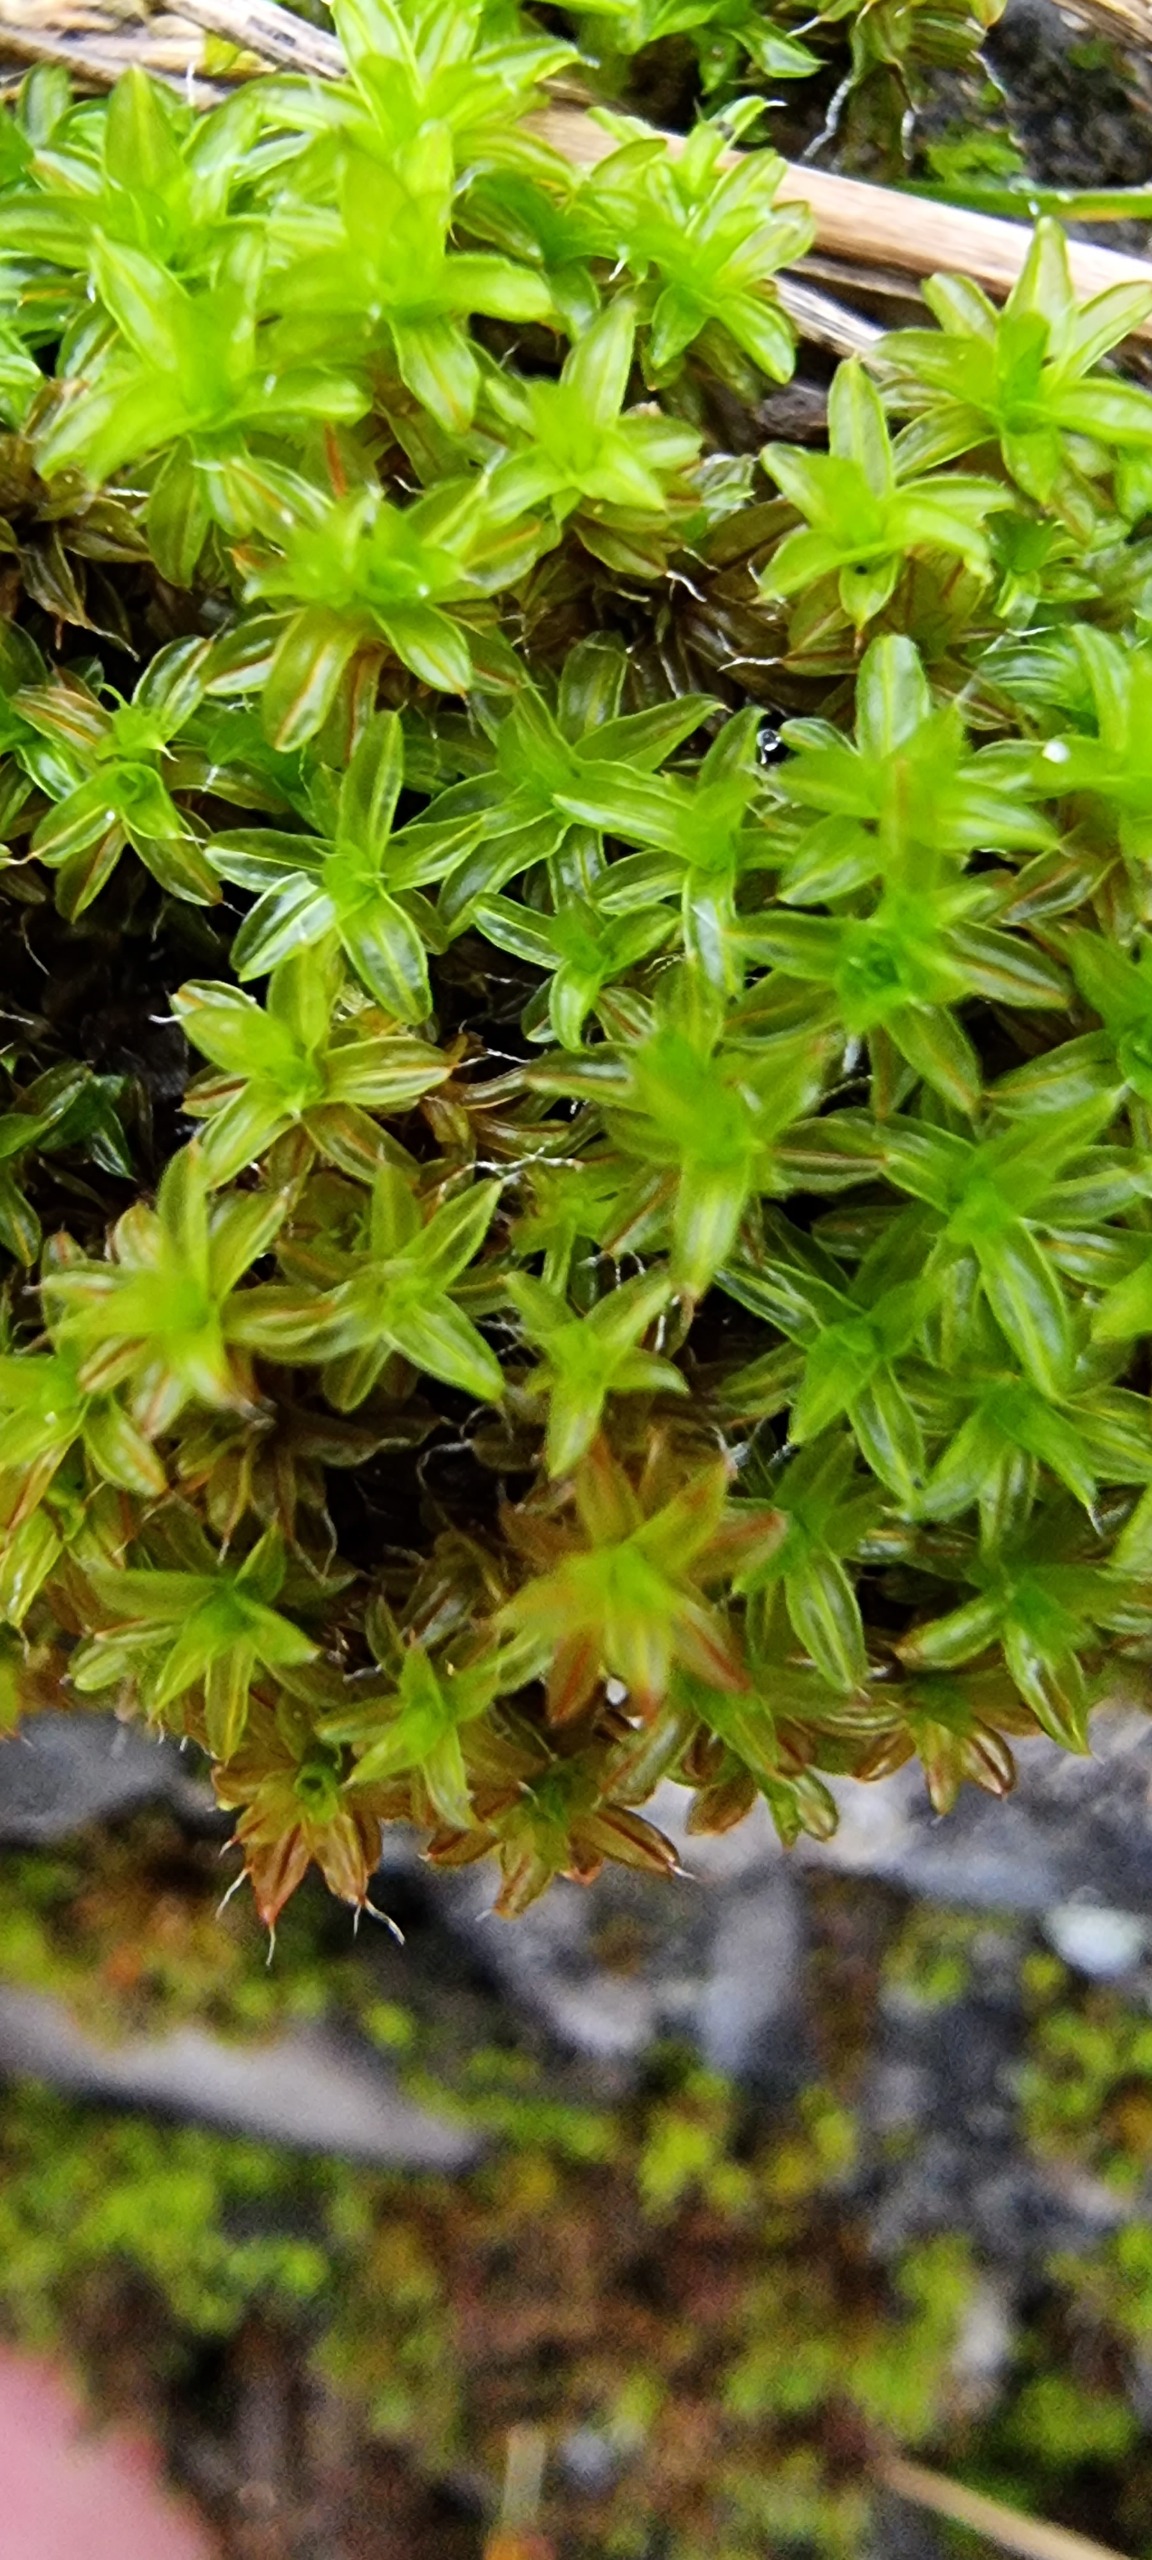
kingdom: Plantae
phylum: Bryophyta
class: Bryopsida
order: Pottiales
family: Pottiaceae
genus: Syntrichia
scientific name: Syntrichia ruralis
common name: Tag-hårstjerne
